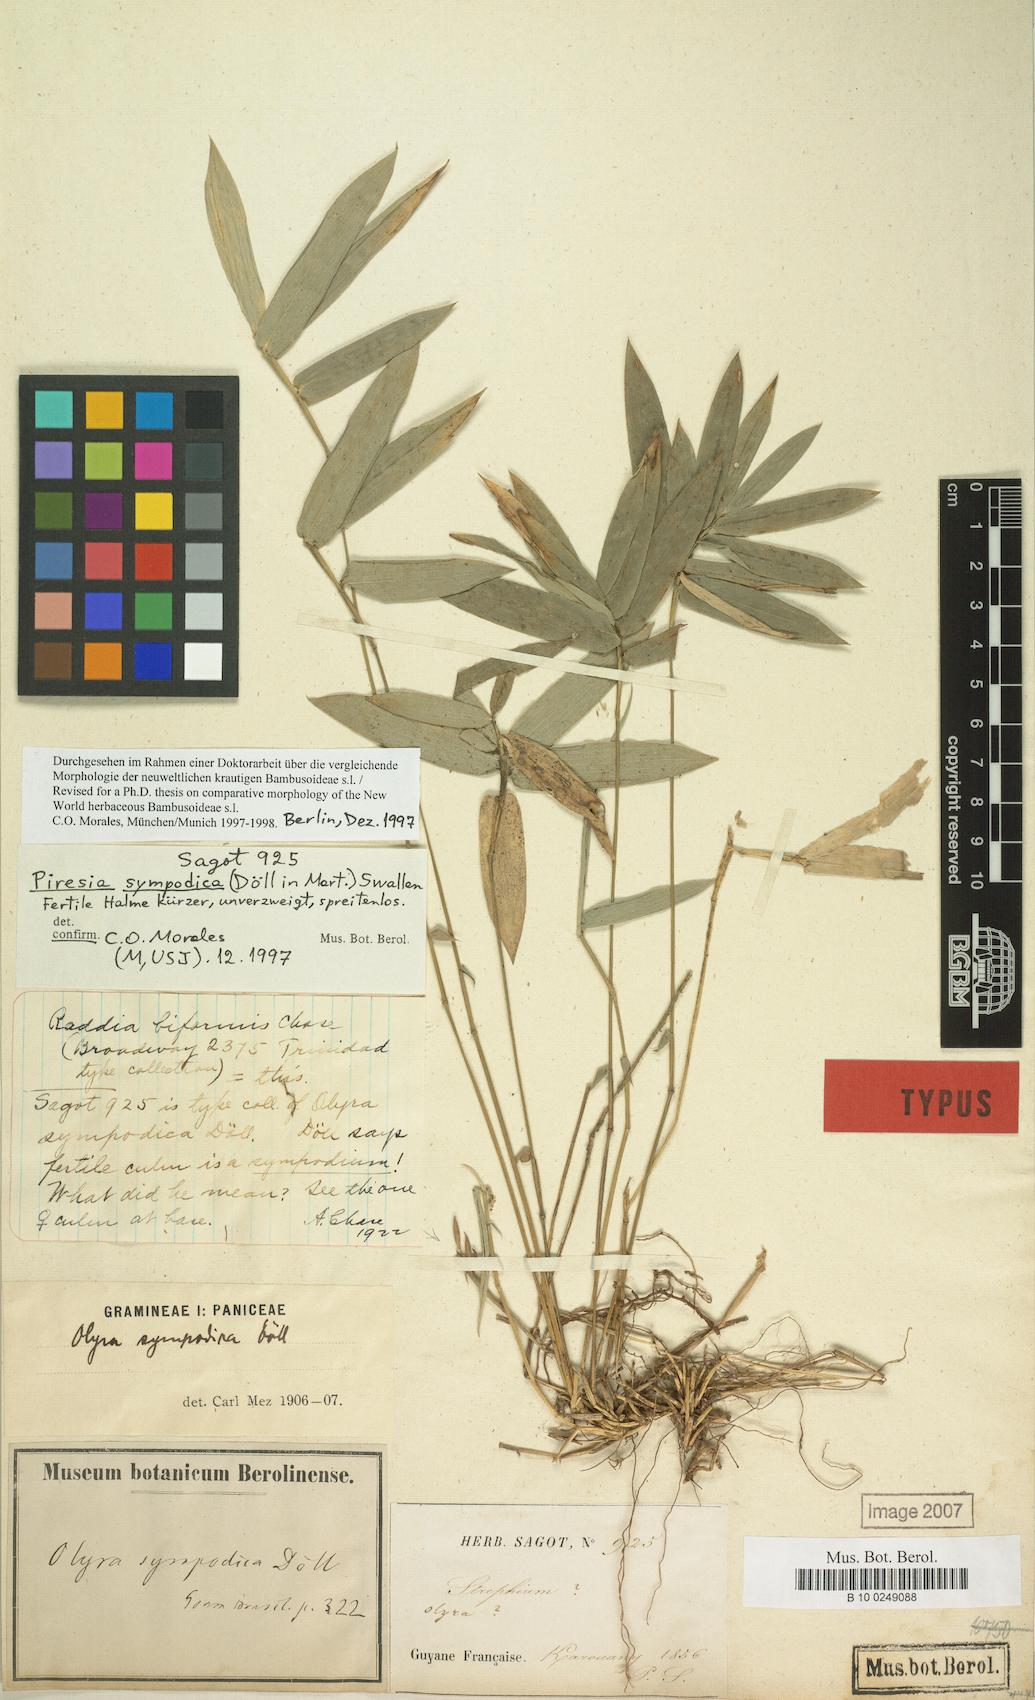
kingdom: Plantae
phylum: Tracheophyta
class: Liliopsida
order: Poales
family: Poaceae
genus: Piresia
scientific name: Piresia sympodica
